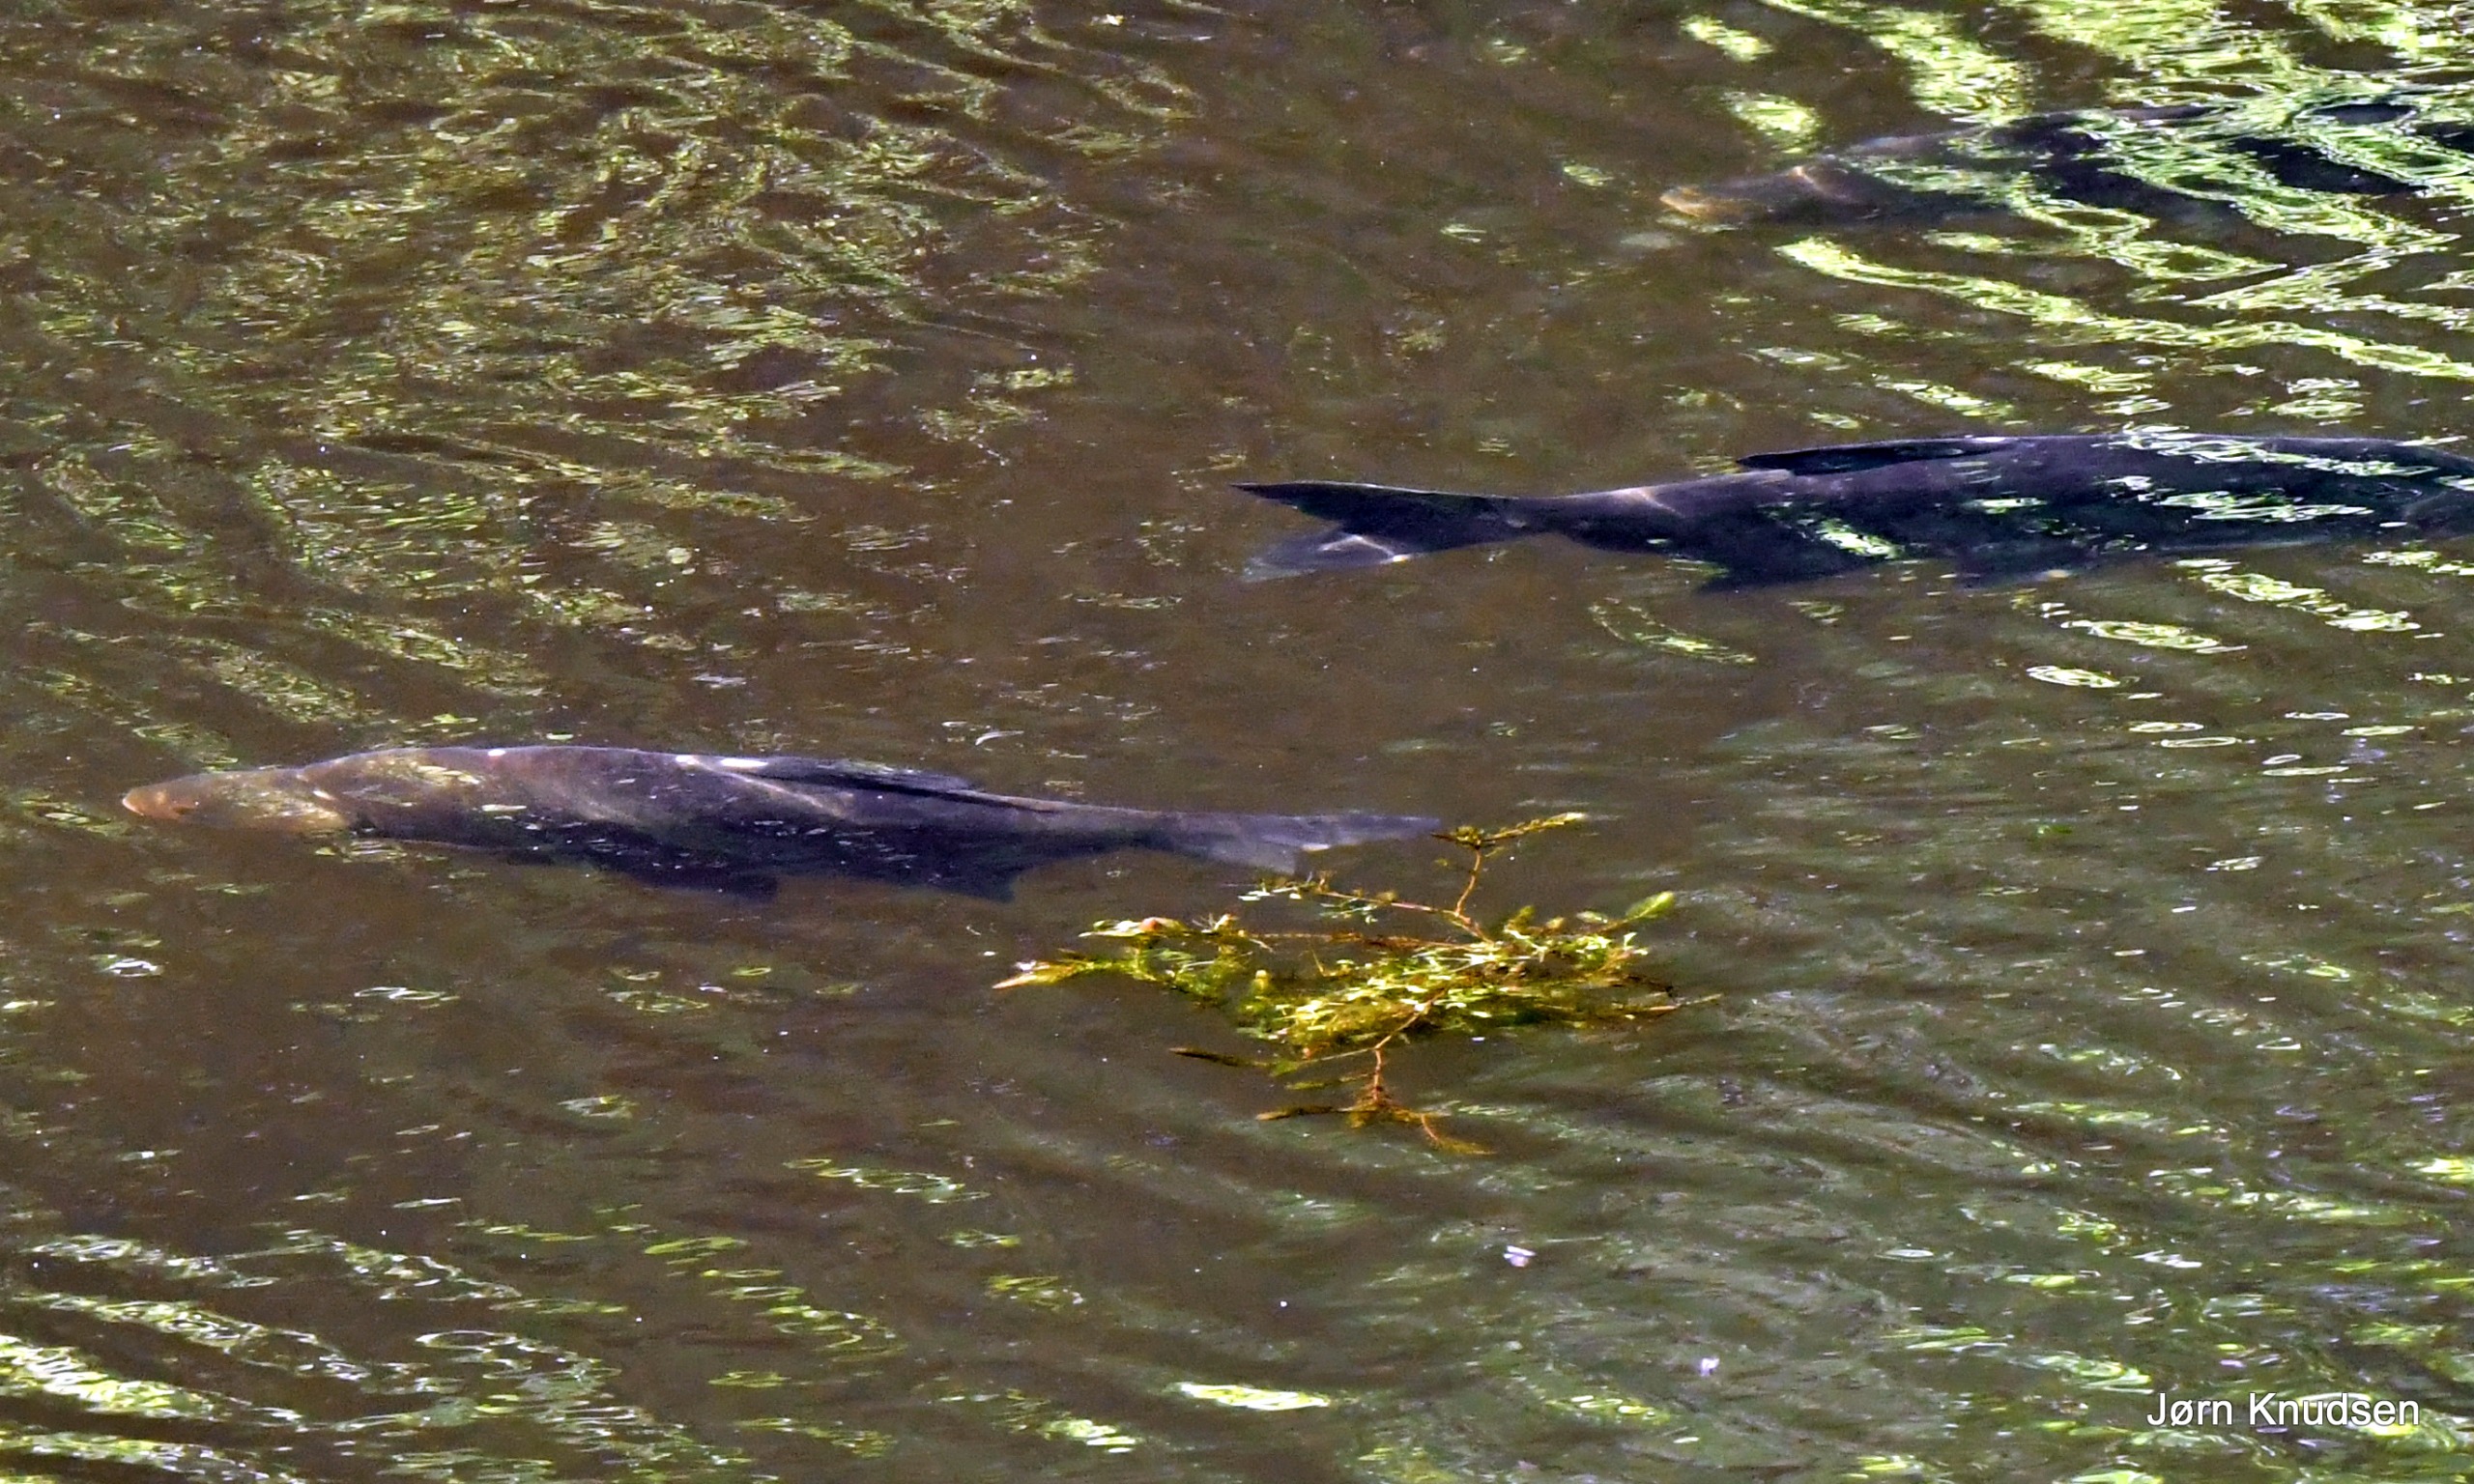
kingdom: Animalia
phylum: Chordata
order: Cypriniformes
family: Cyprinidae
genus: Abramis
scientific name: Abramis brama
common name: Brasen
